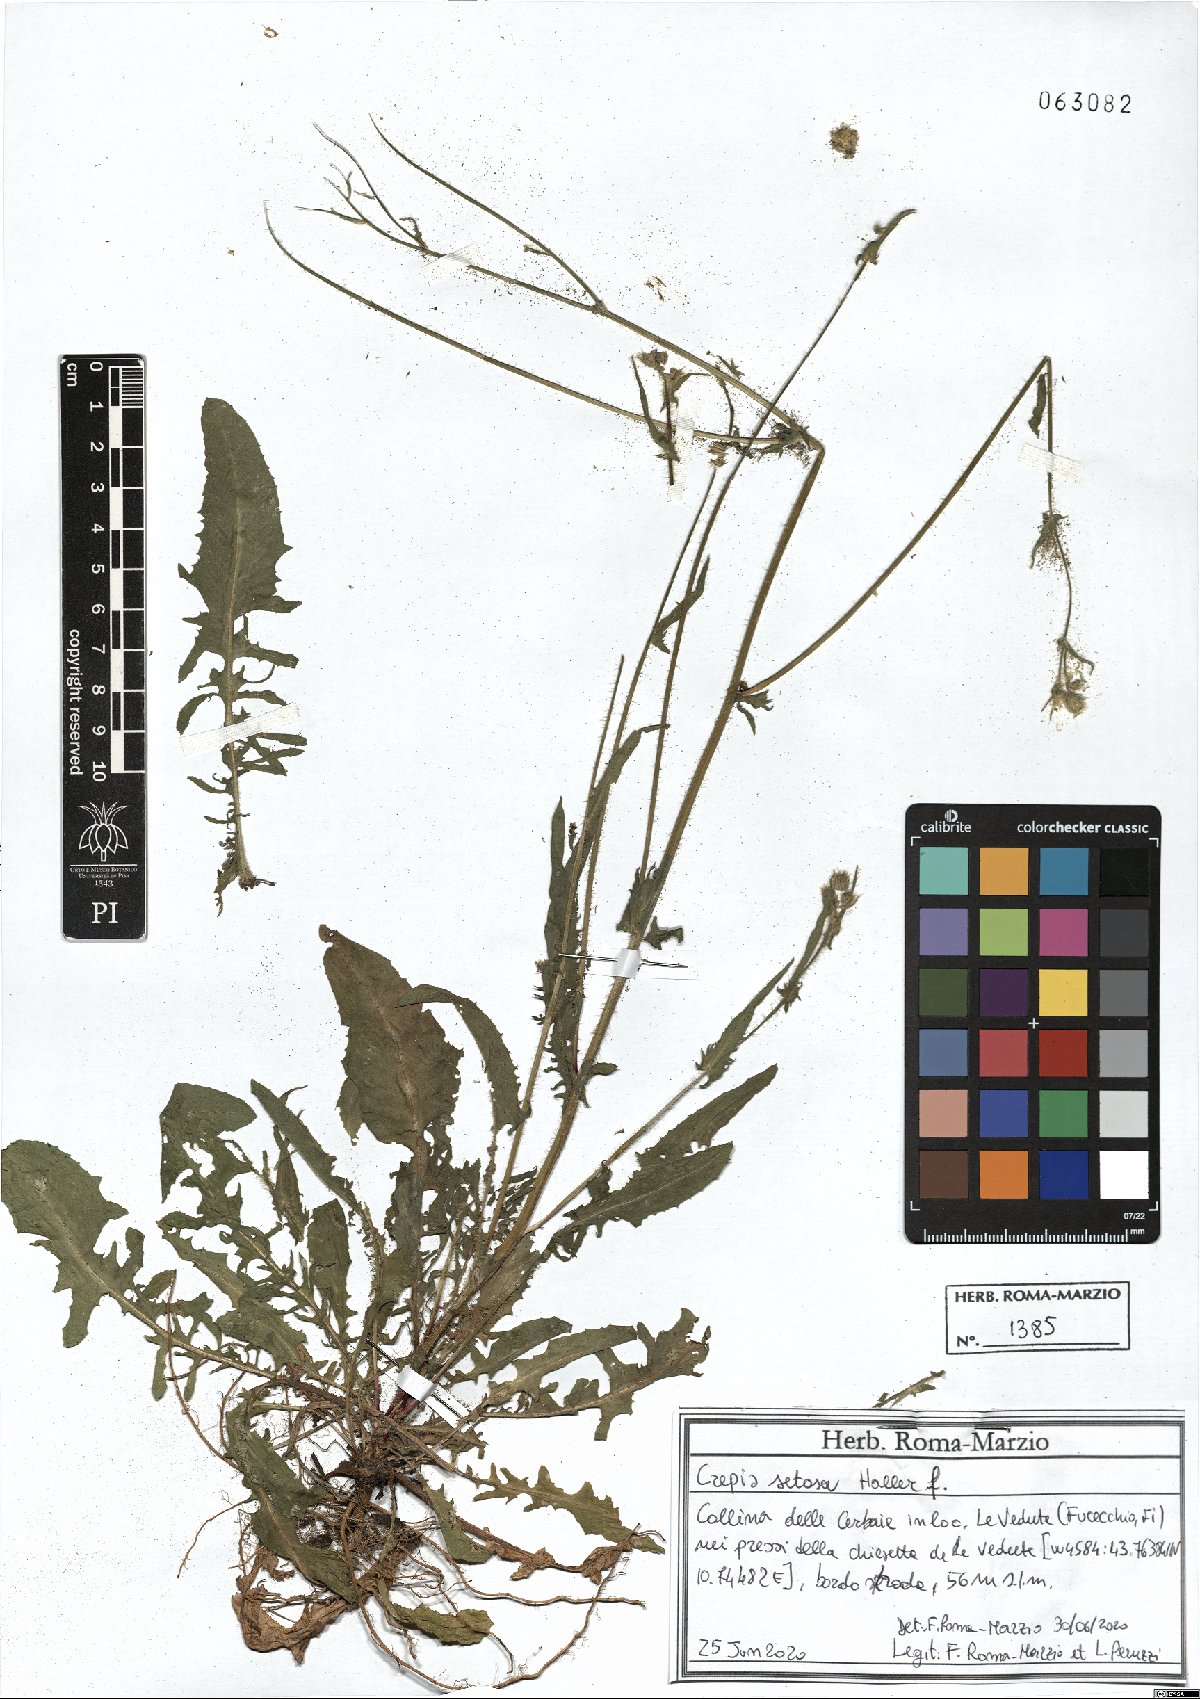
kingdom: Plantae
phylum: Tracheophyta
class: Magnoliopsida
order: Asterales
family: Asteraceae
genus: Crepis
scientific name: Crepis setosa
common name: Bristly hawk's-beard
